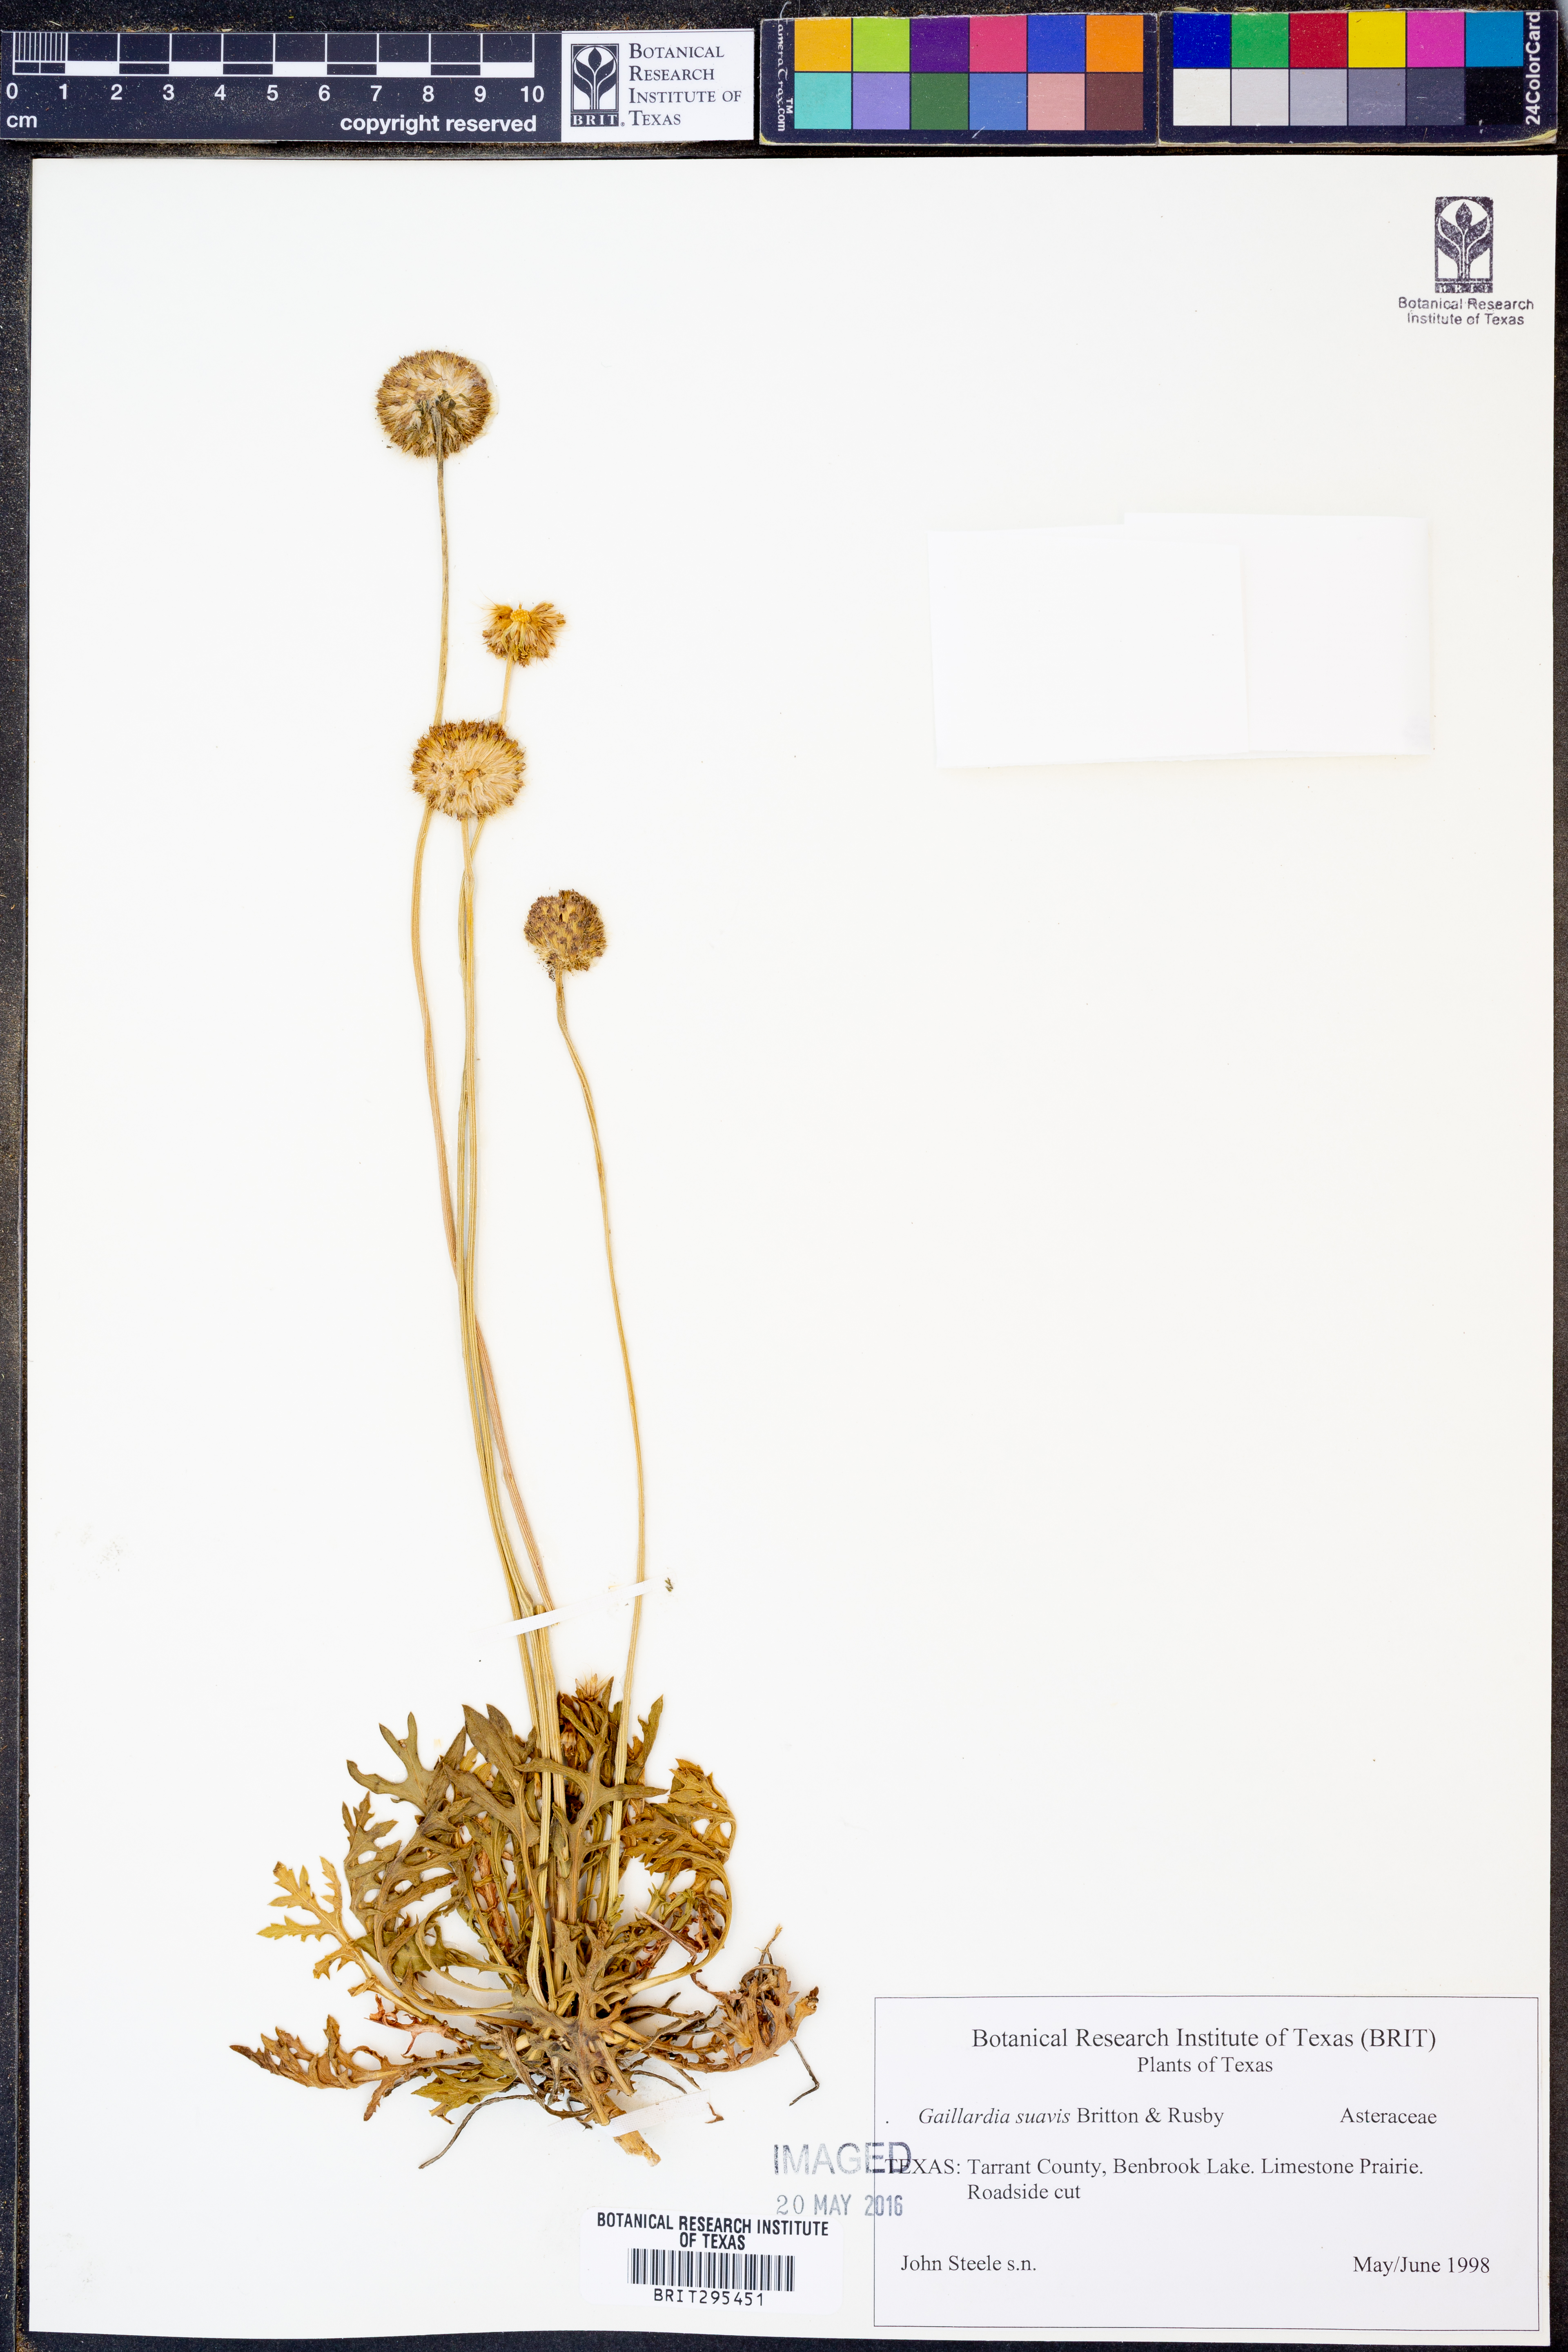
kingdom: Plantae
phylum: Tracheophyta
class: Magnoliopsida
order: Asterales
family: Asteraceae
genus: Gaillardia
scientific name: Gaillardia suavis
